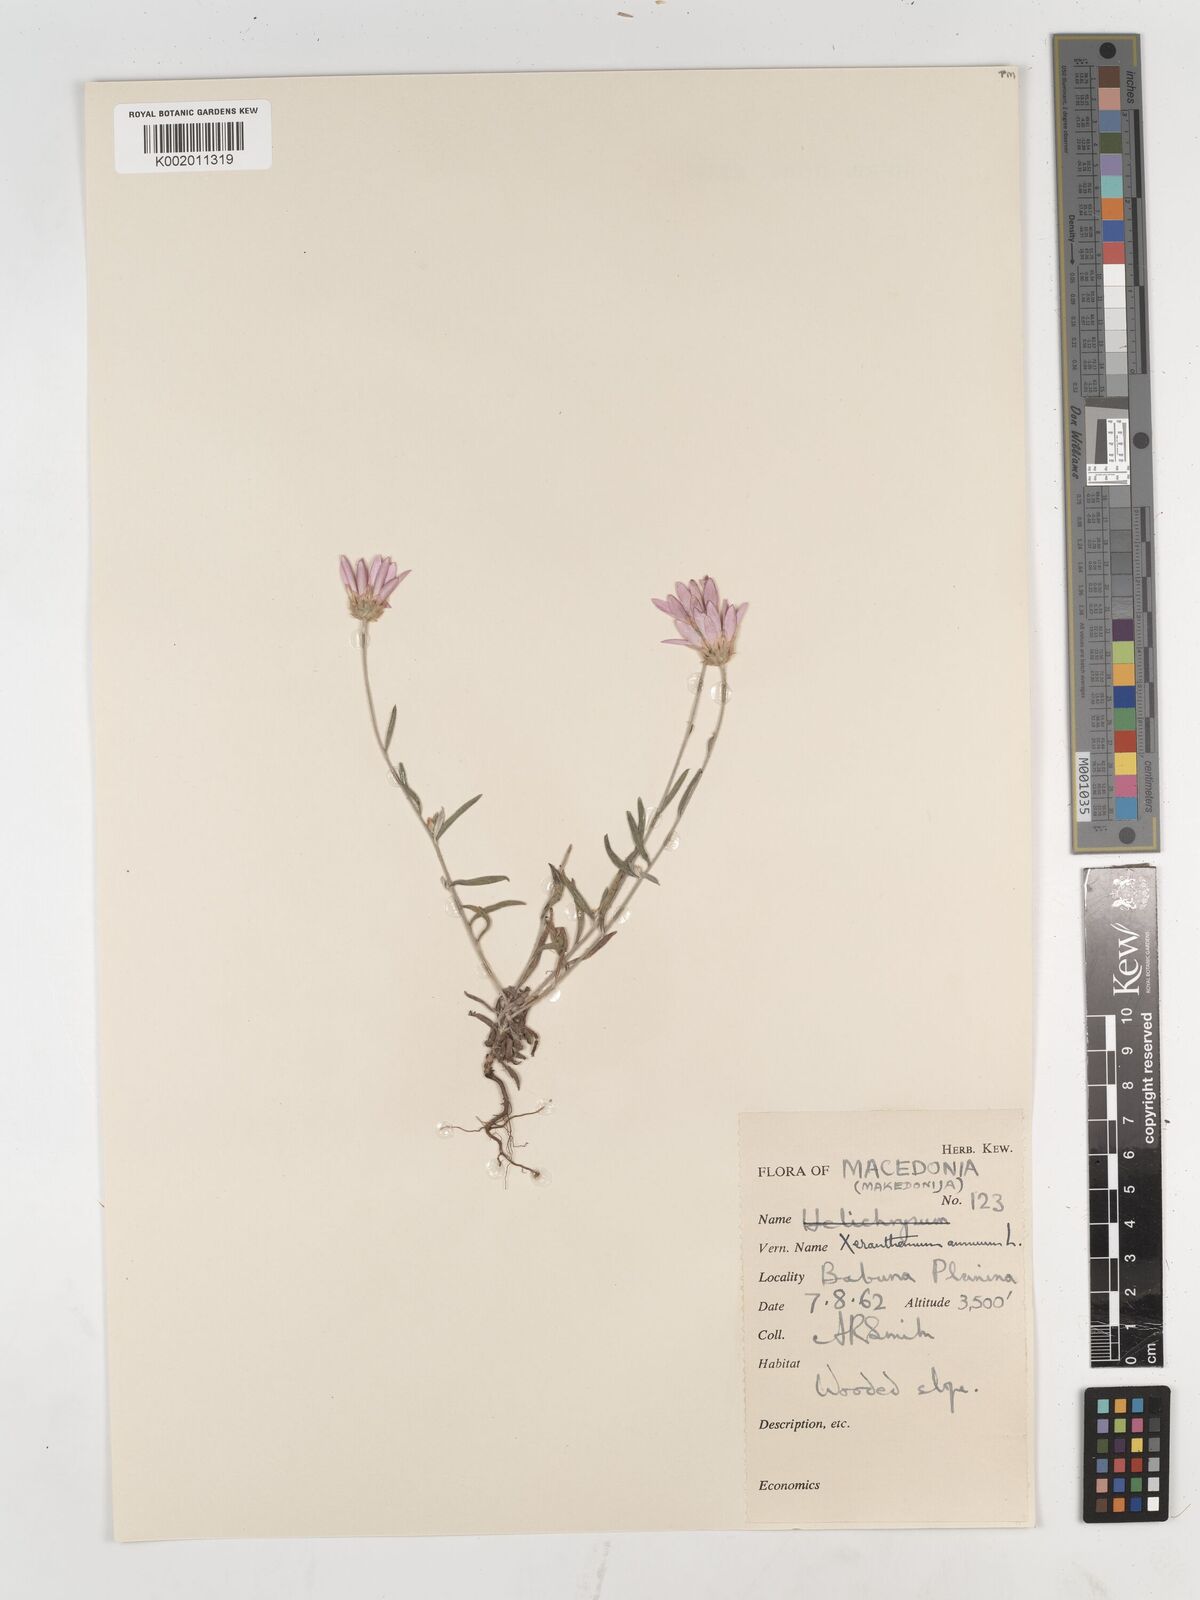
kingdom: Plantae
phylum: Tracheophyta
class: Magnoliopsida
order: Asterales
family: Asteraceae
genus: Xeranthemum
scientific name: Xeranthemum annuum
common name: Immortelle
